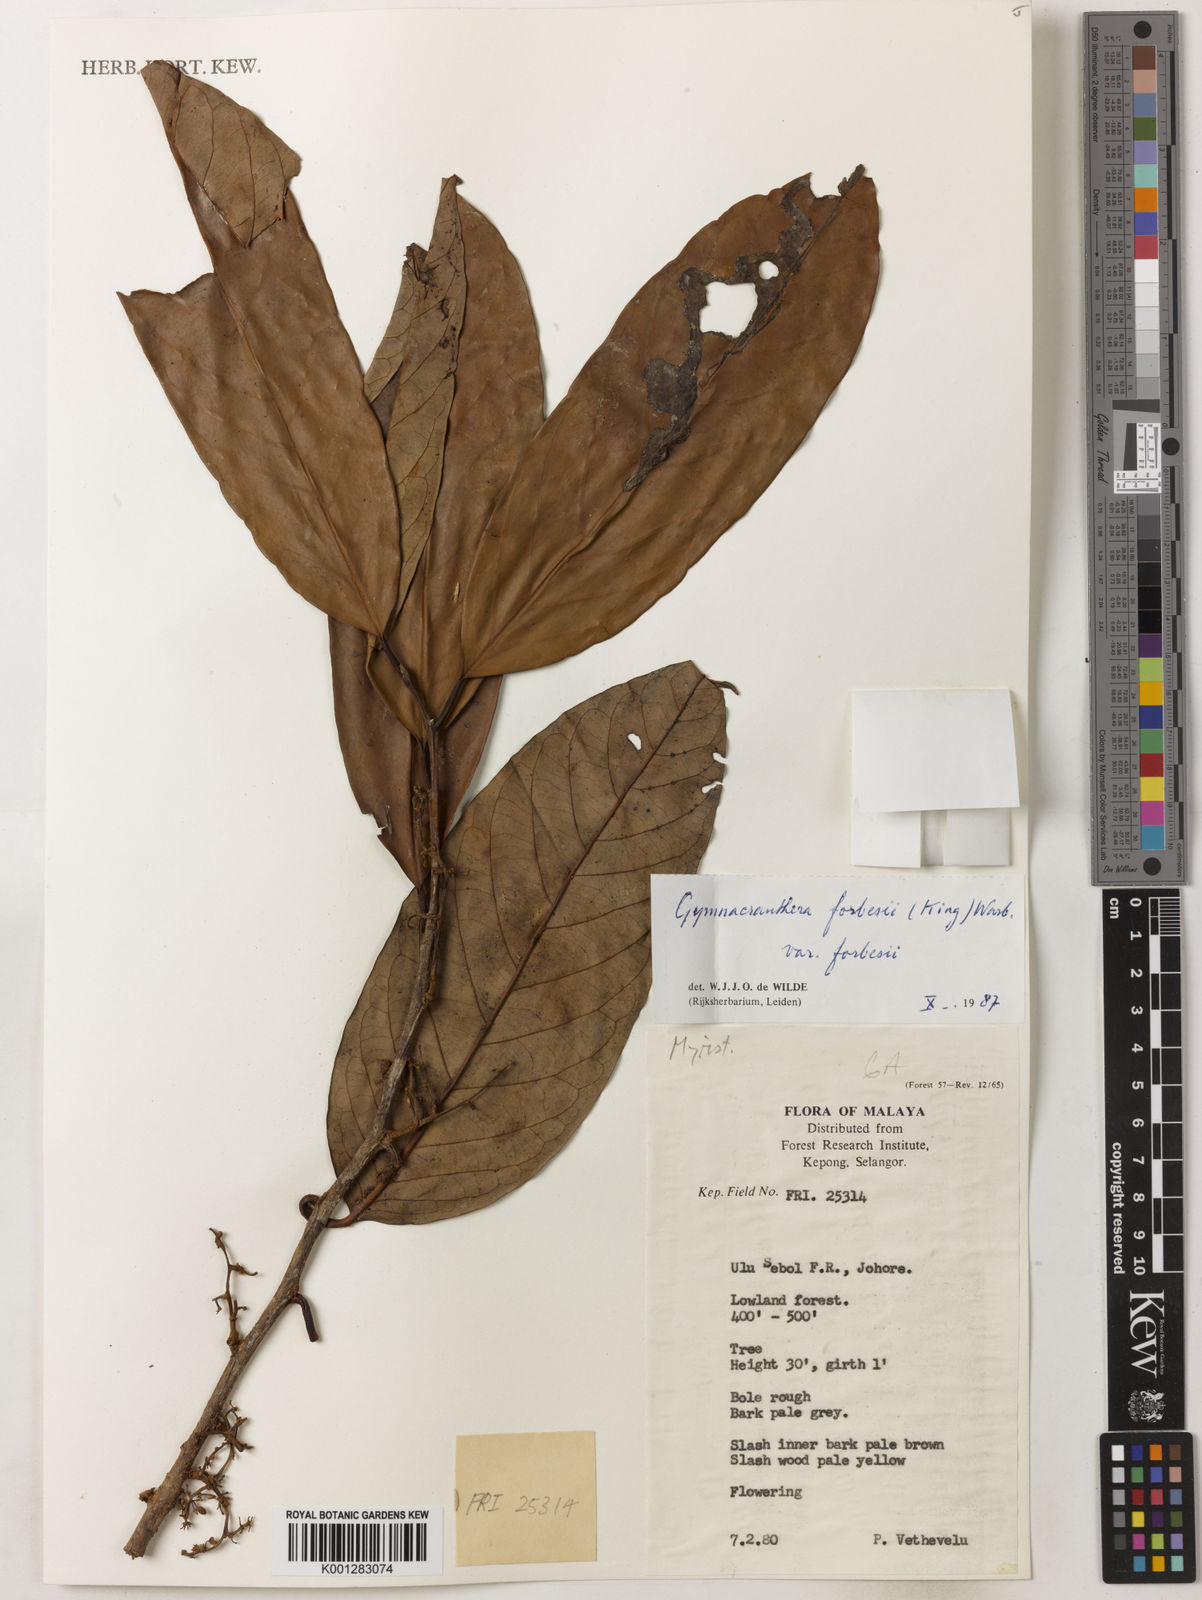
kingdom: Plantae
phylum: Tracheophyta
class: Magnoliopsida
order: Magnoliales
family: Myristicaceae
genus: Gymnacranthera
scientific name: Gymnacranthera forbesii
